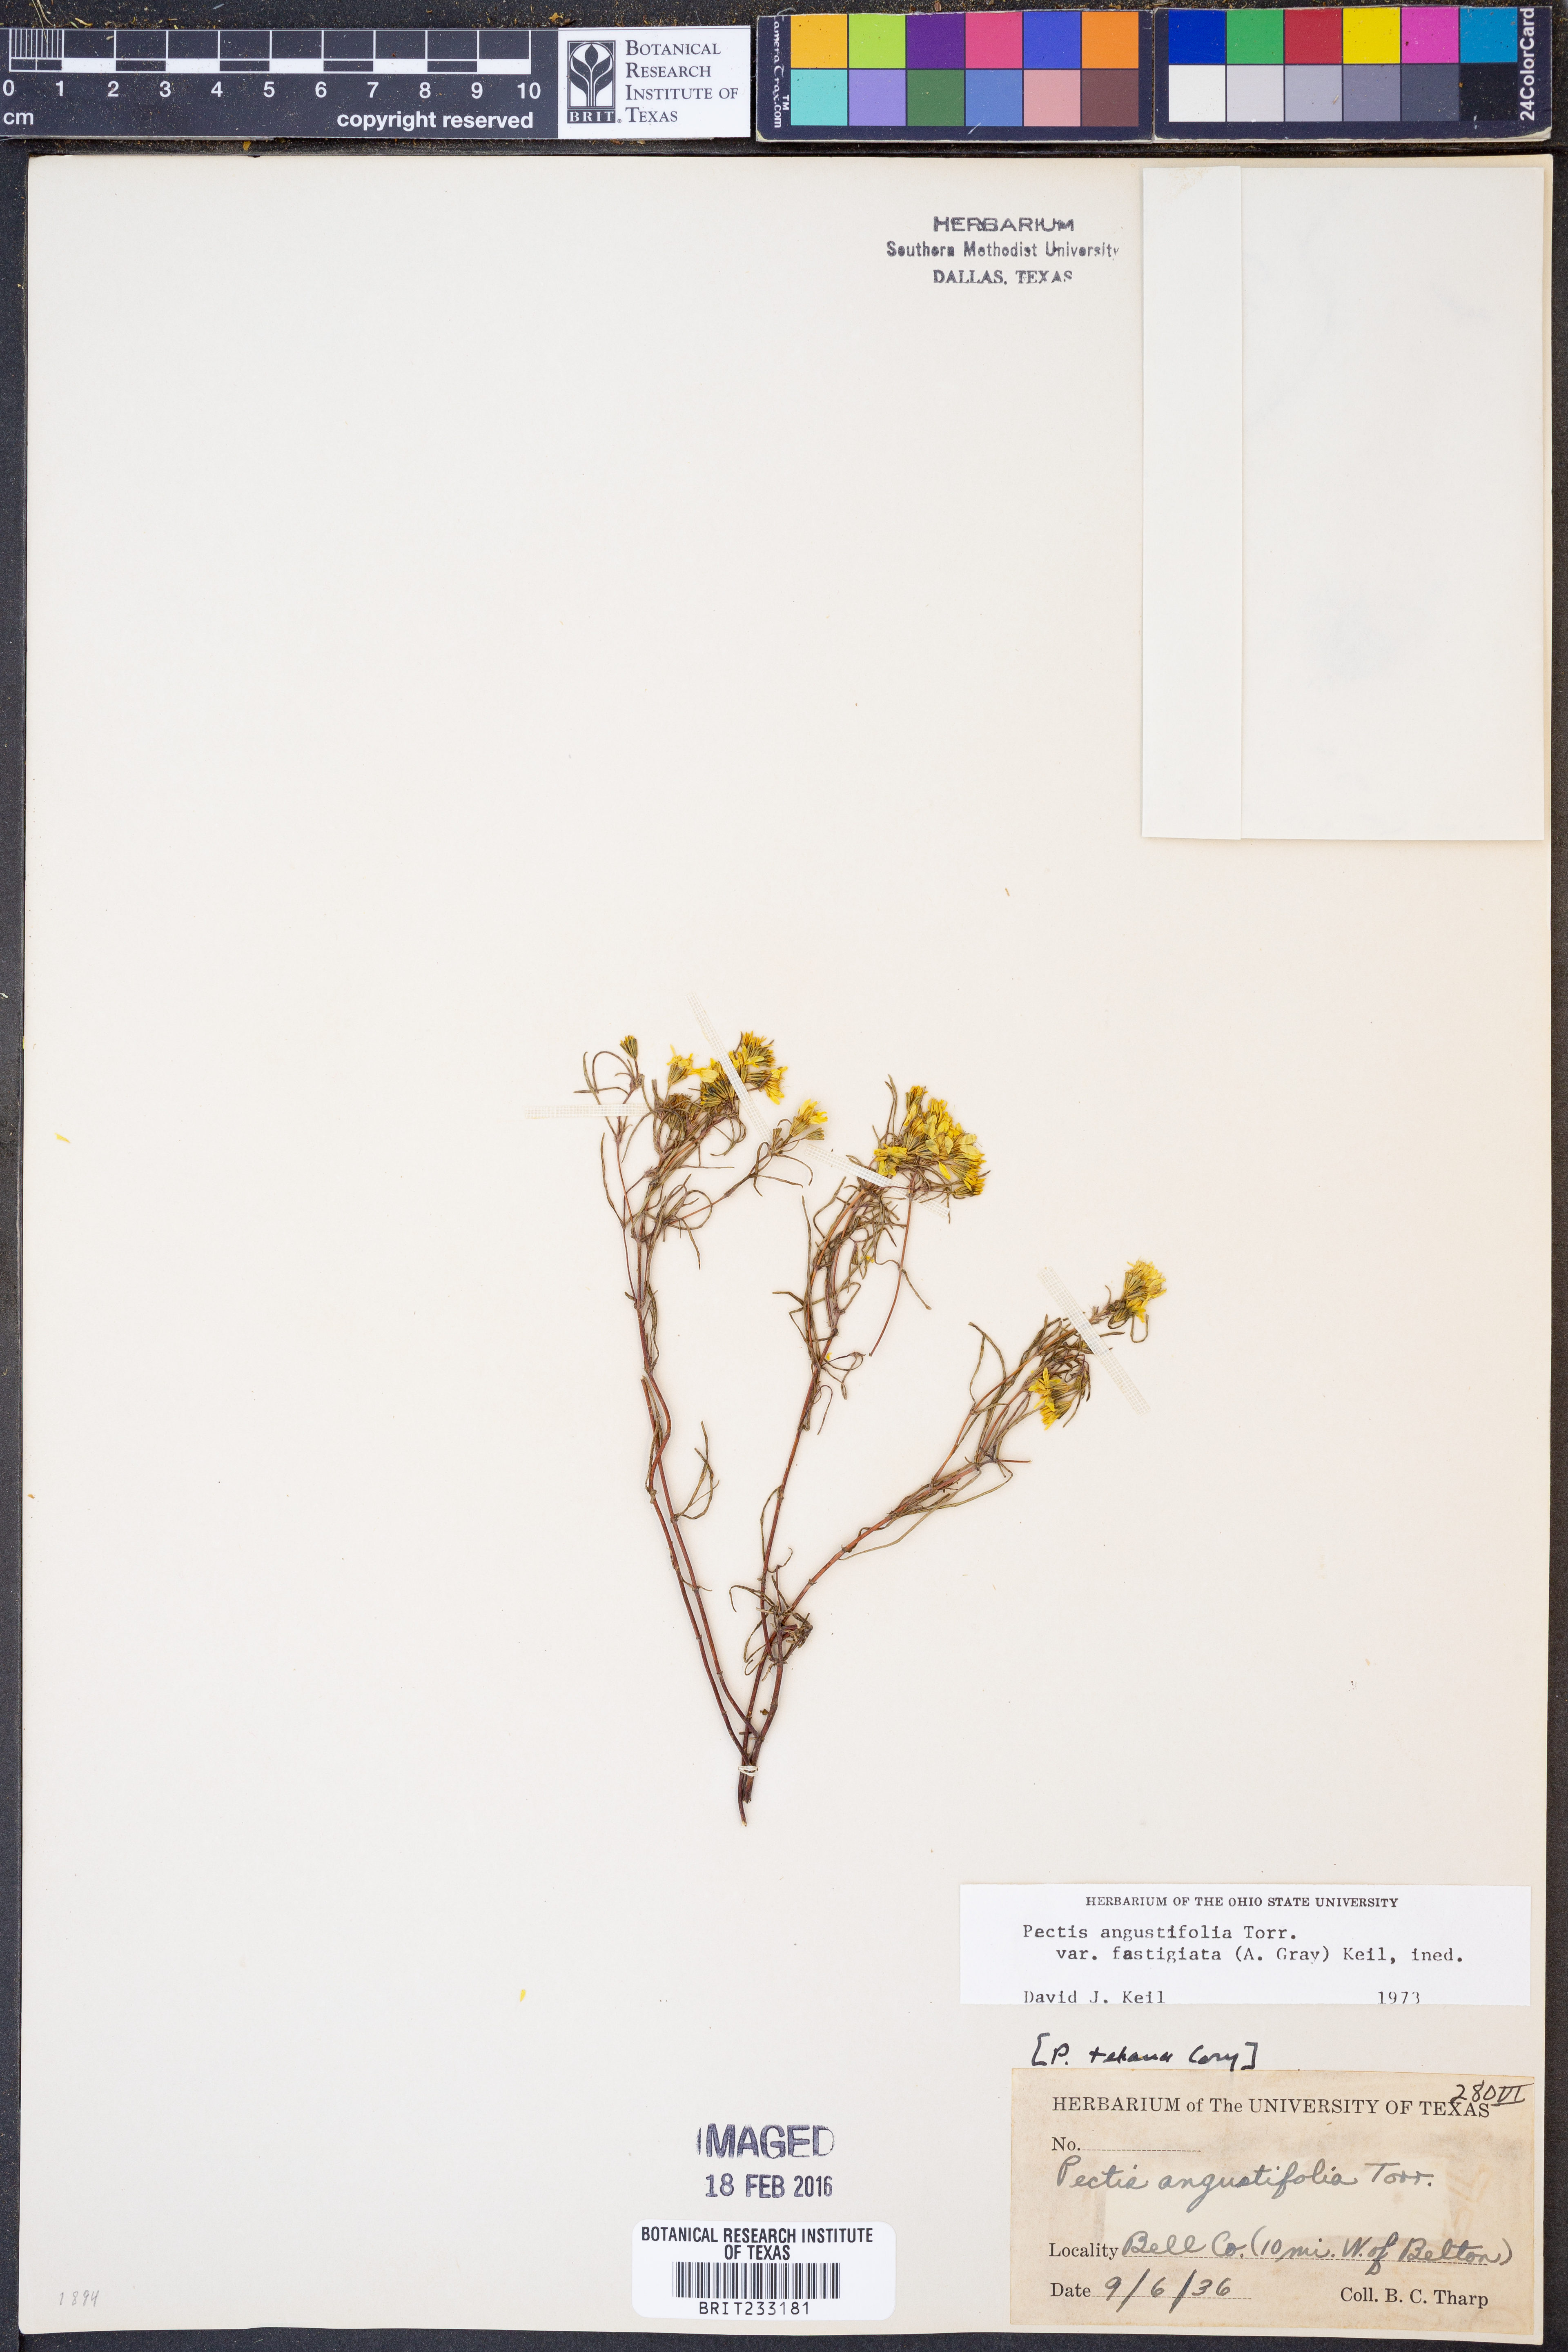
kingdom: Plantae
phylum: Tracheophyta
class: Magnoliopsida
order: Asterales
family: Asteraceae
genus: Pectis
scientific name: Pectis angustifolia
